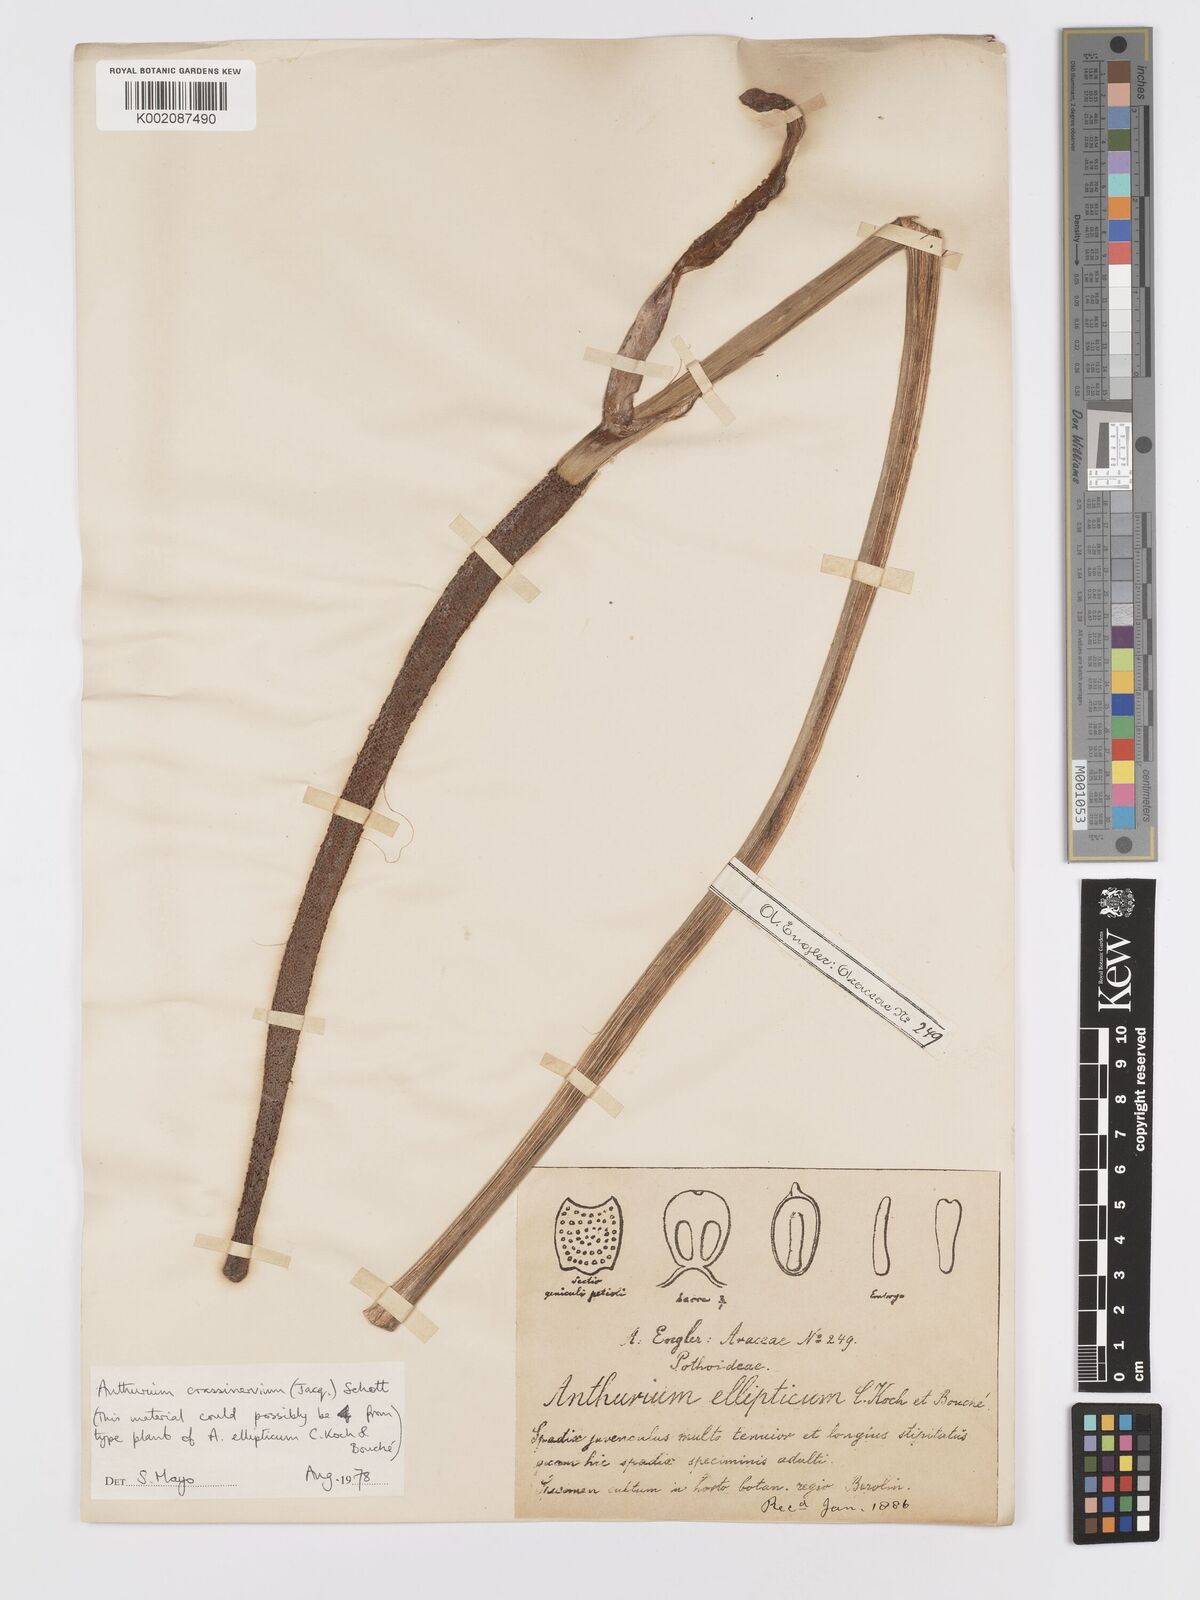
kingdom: Plantae
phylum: Tracheophyta
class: Liliopsida
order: Alismatales
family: Araceae
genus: Anthurium
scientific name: Anthurium crassinervium
